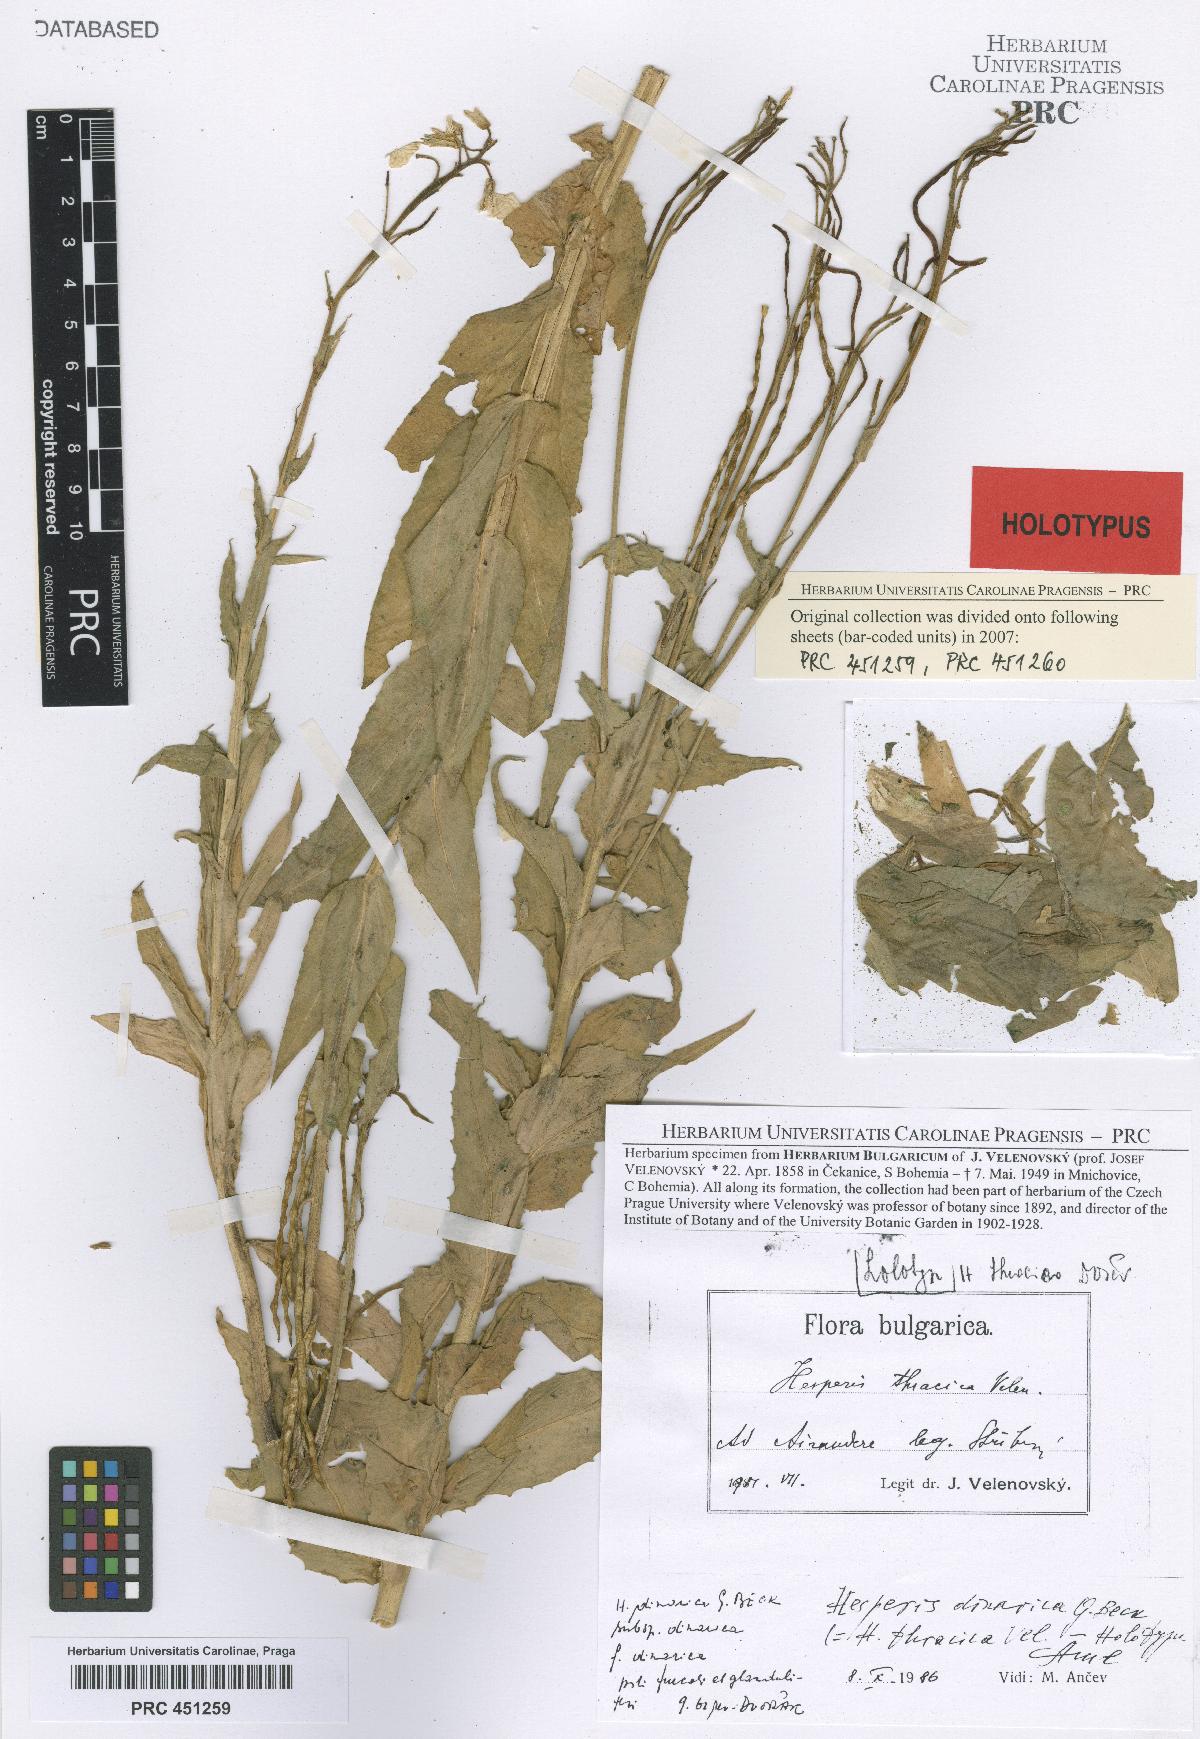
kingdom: Plantae
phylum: Tracheophyta
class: Magnoliopsida
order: Brassicales
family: Brassicaceae
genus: Hesperis
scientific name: Hesperis matronalis
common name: Dame's-violet
